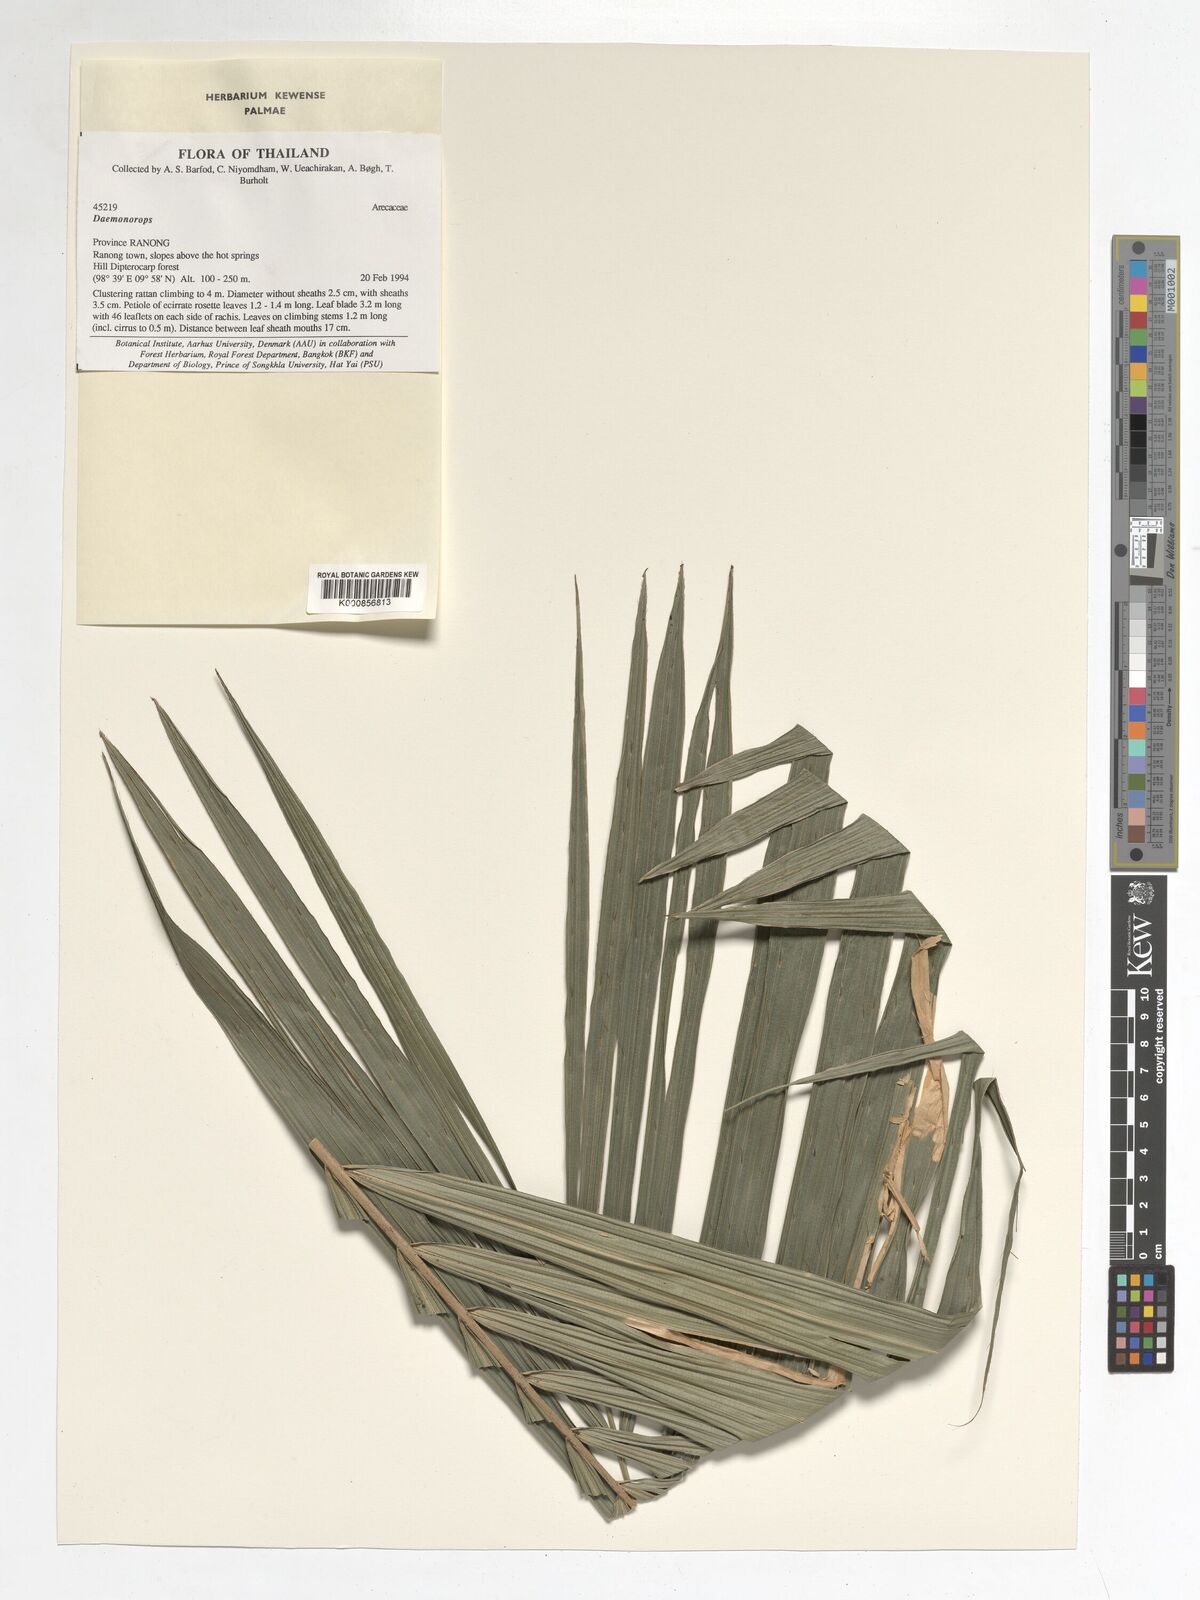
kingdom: Plantae
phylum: Tracheophyta
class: Liliopsida
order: Arecales
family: Arecaceae
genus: Daemonorops
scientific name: Daemonorops
